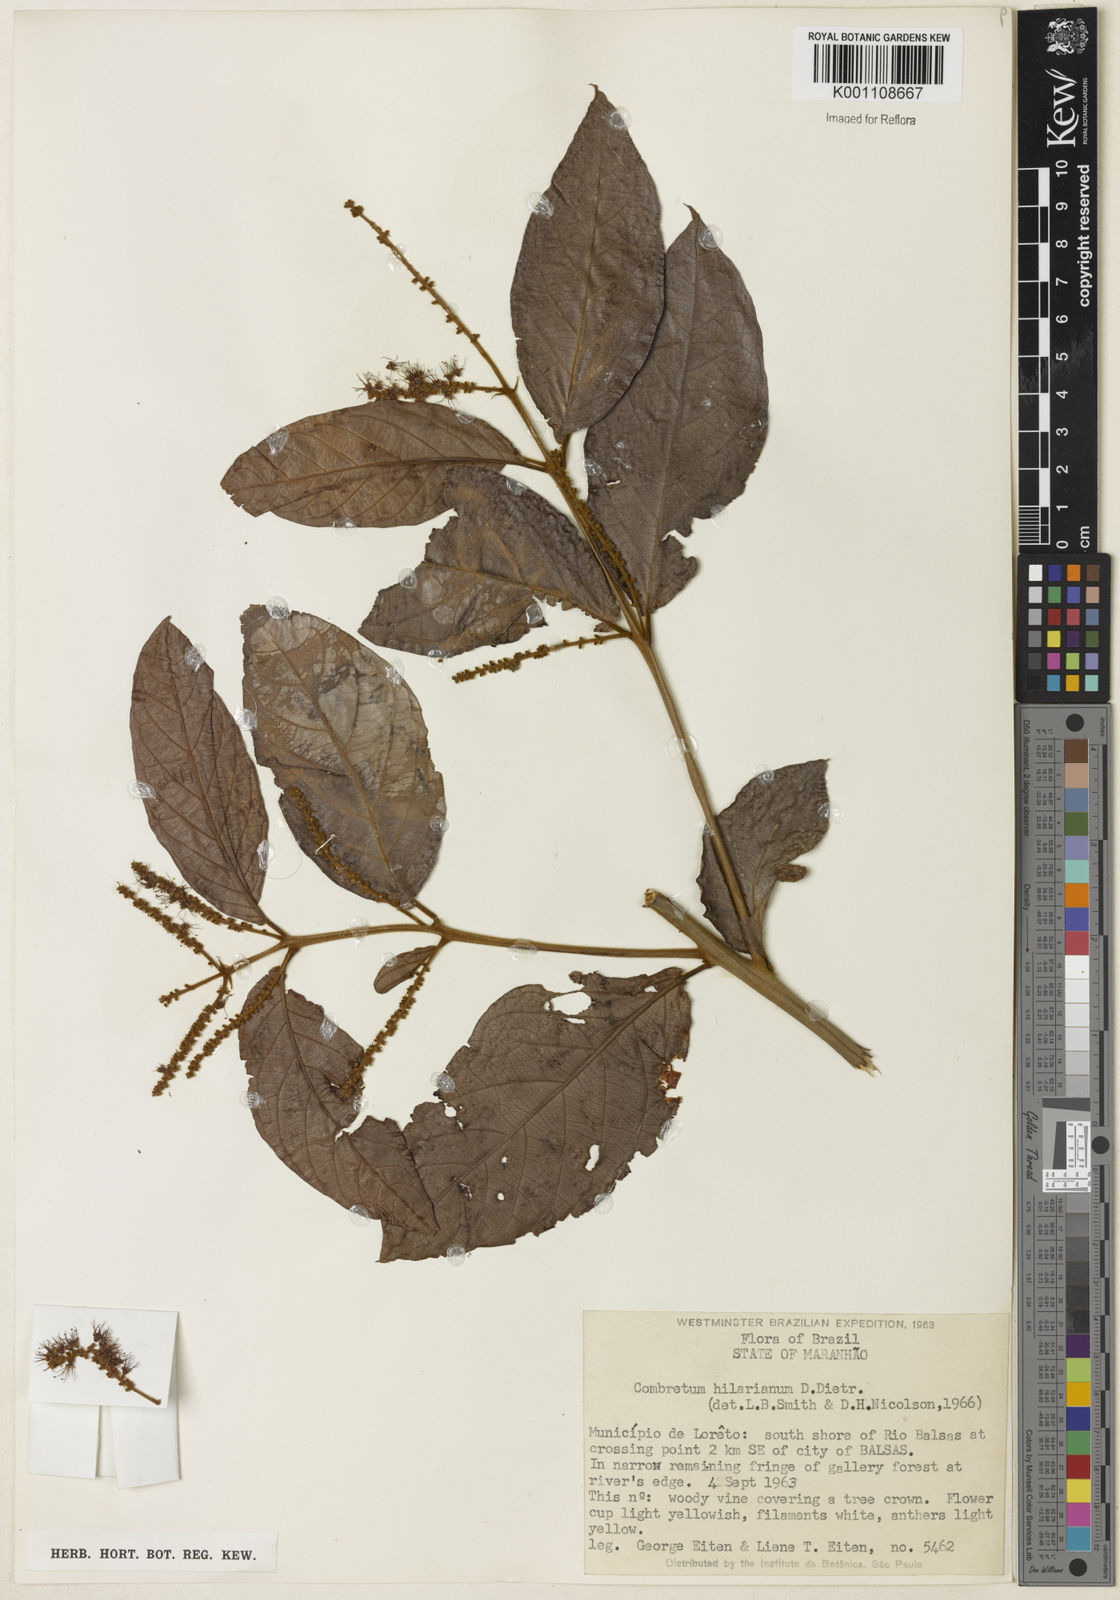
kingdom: Plantae
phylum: Tracheophyta
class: Magnoliopsida
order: Myrtales
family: Combretaceae
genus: Combretum
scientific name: Combretum hilarianum
